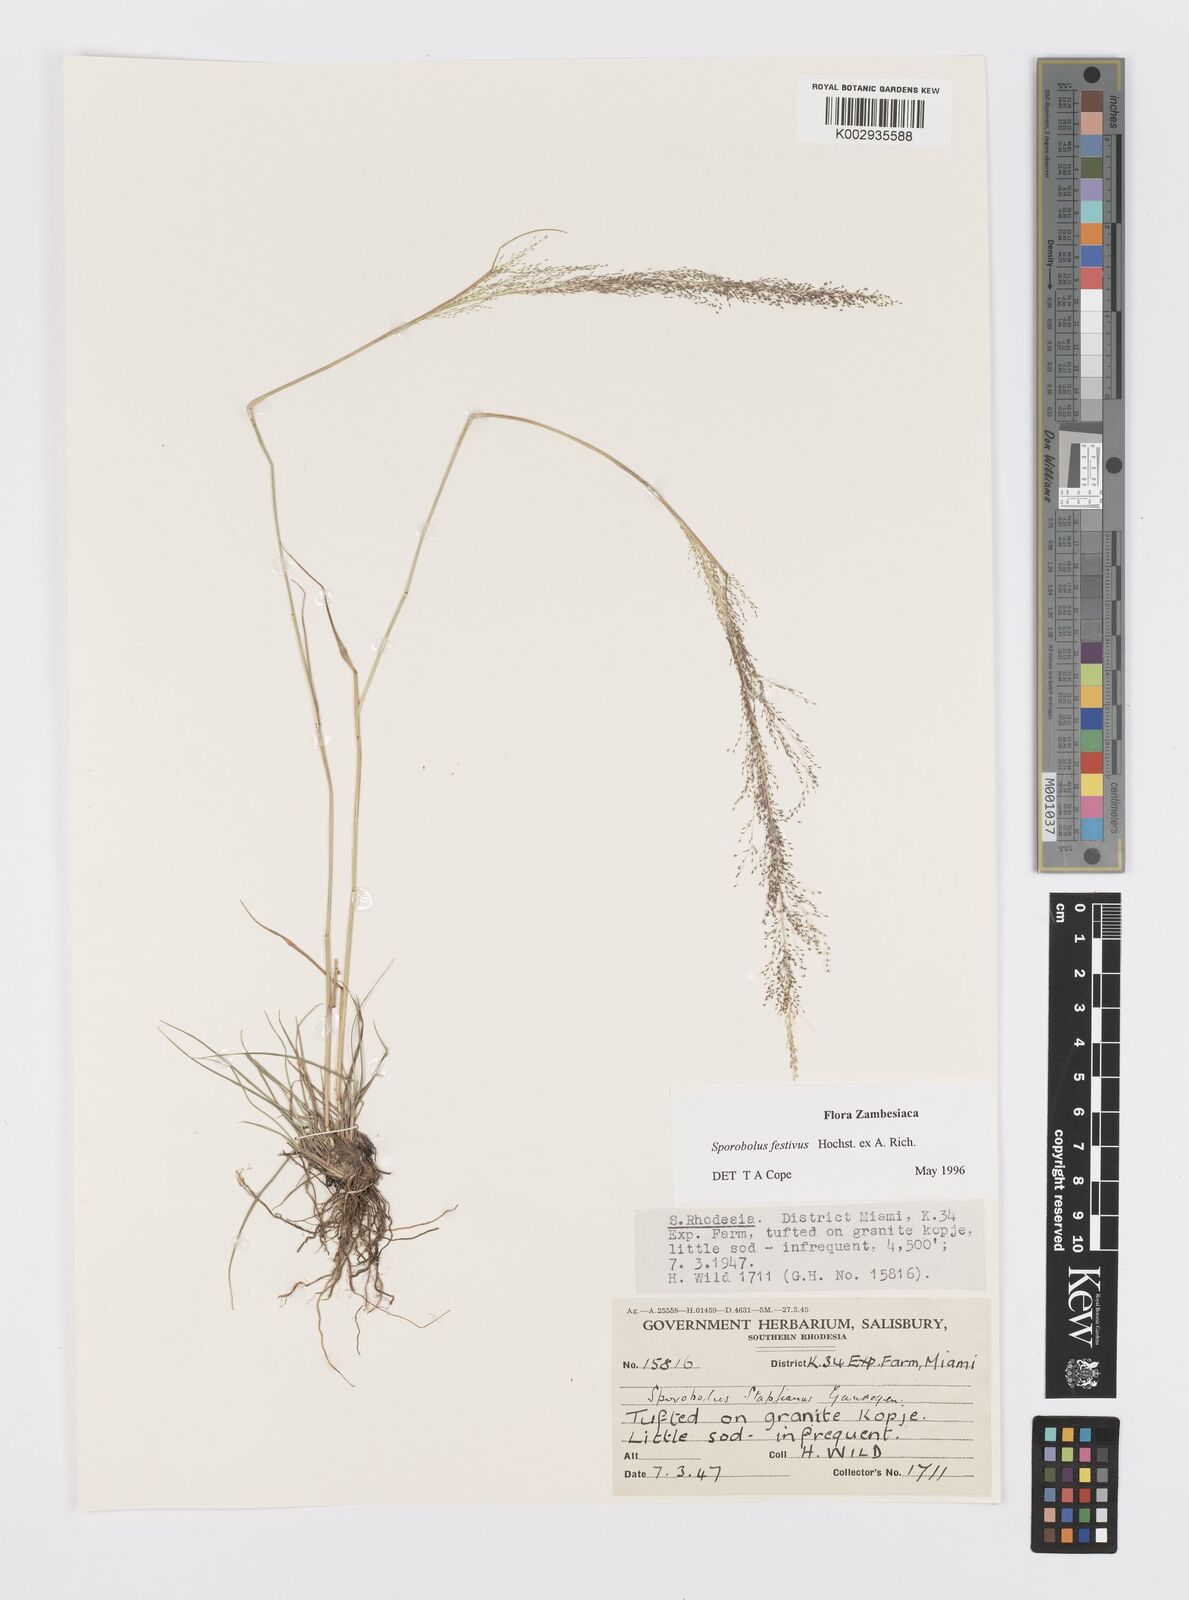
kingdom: Plantae
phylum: Tracheophyta
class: Liliopsida
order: Poales
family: Poaceae
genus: Sporobolus
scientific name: Sporobolus festivus
